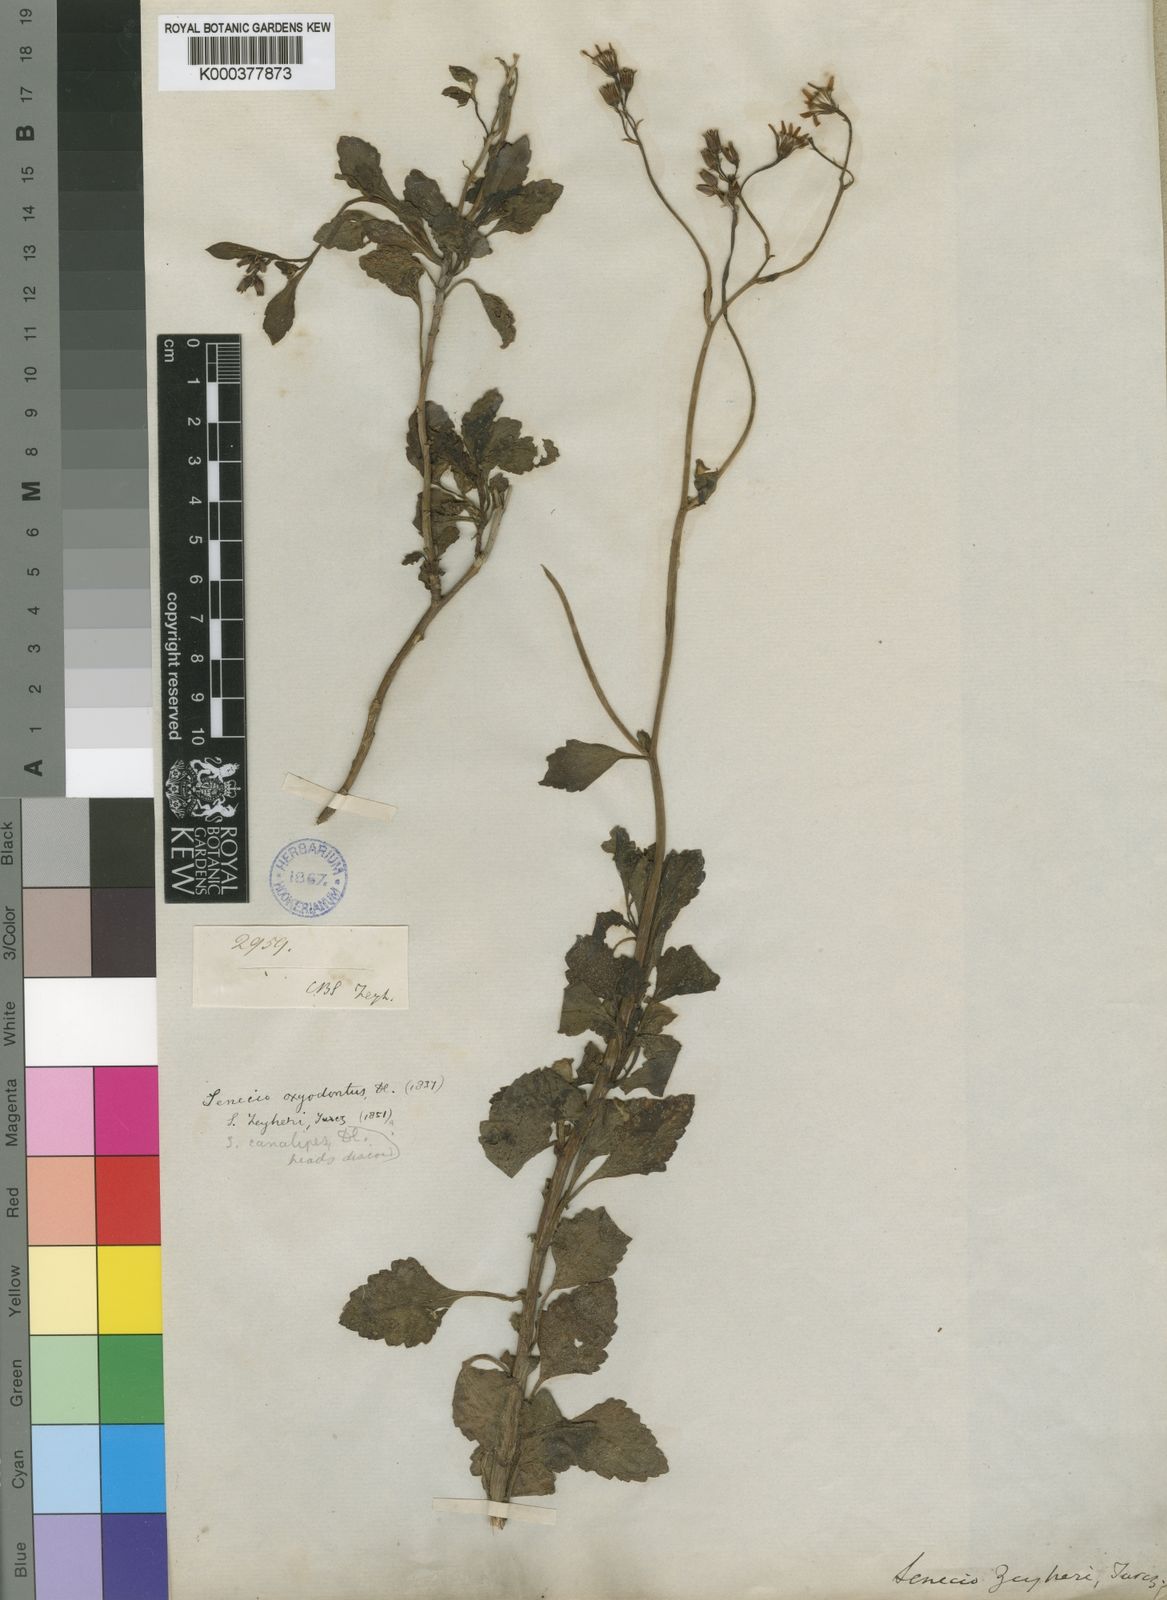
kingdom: Plantae
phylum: Tracheophyta
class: Magnoliopsida
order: Asterales
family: Asteraceae
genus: Senecio
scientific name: Senecio angulatus
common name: Climbing groundsel
